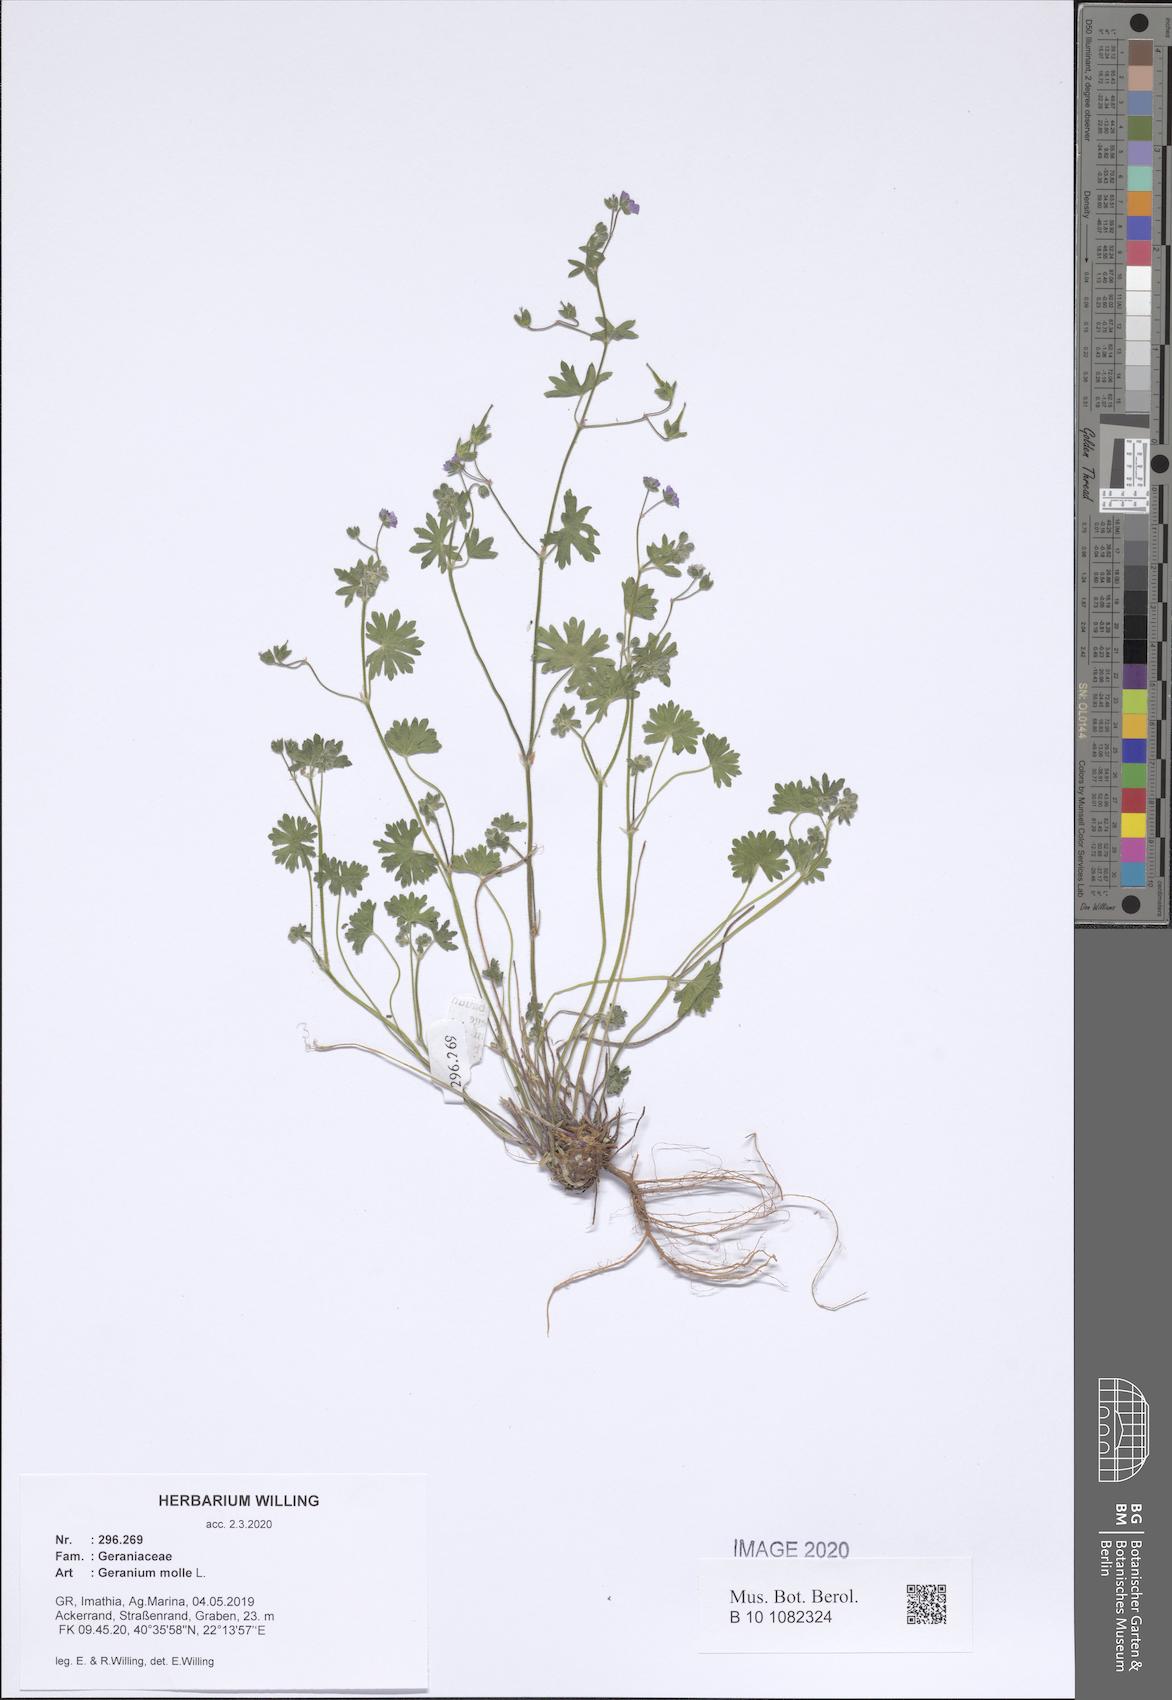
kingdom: Plantae
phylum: Tracheophyta
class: Magnoliopsida
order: Geraniales
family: Geraniaceae
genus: Geranium
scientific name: Geranium molle
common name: Dove's-foot crane's-bill
